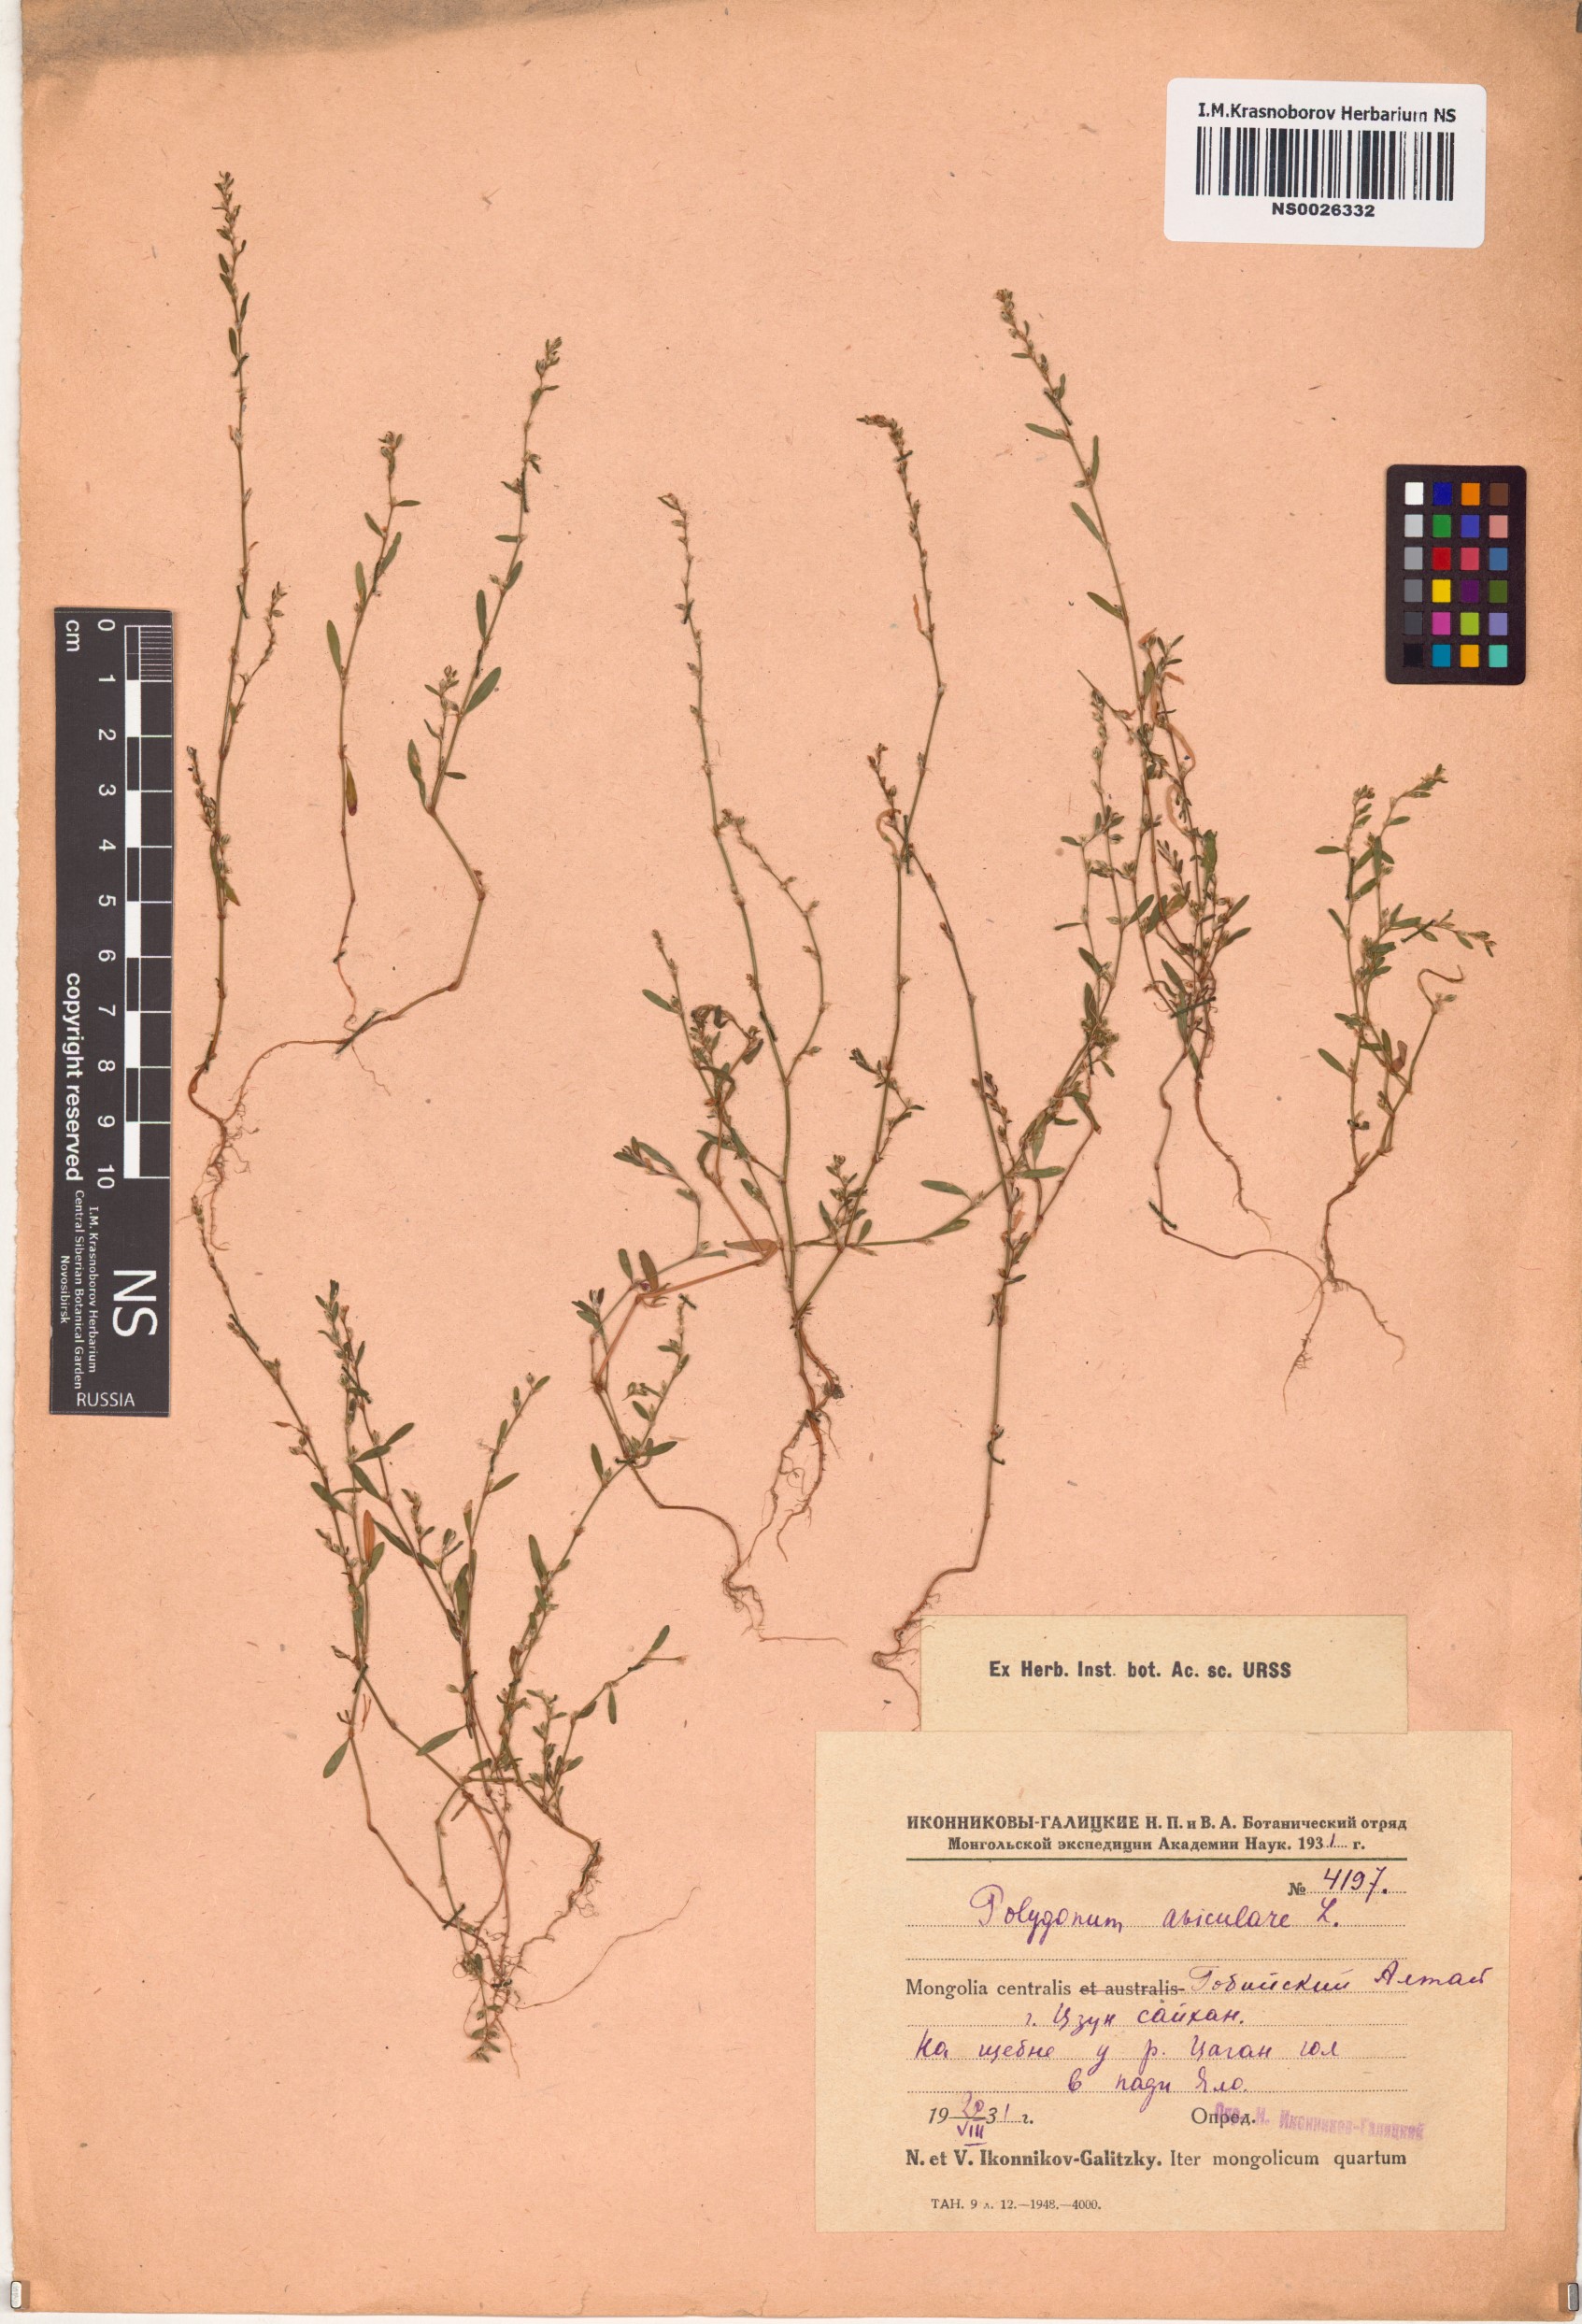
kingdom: Plantae
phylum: Tracheophyta
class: Magnoliopsida
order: Caryophyllales
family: Polygonaceae
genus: Polygonum
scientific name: Polygonum aviculare
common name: Prostrate knotweed
